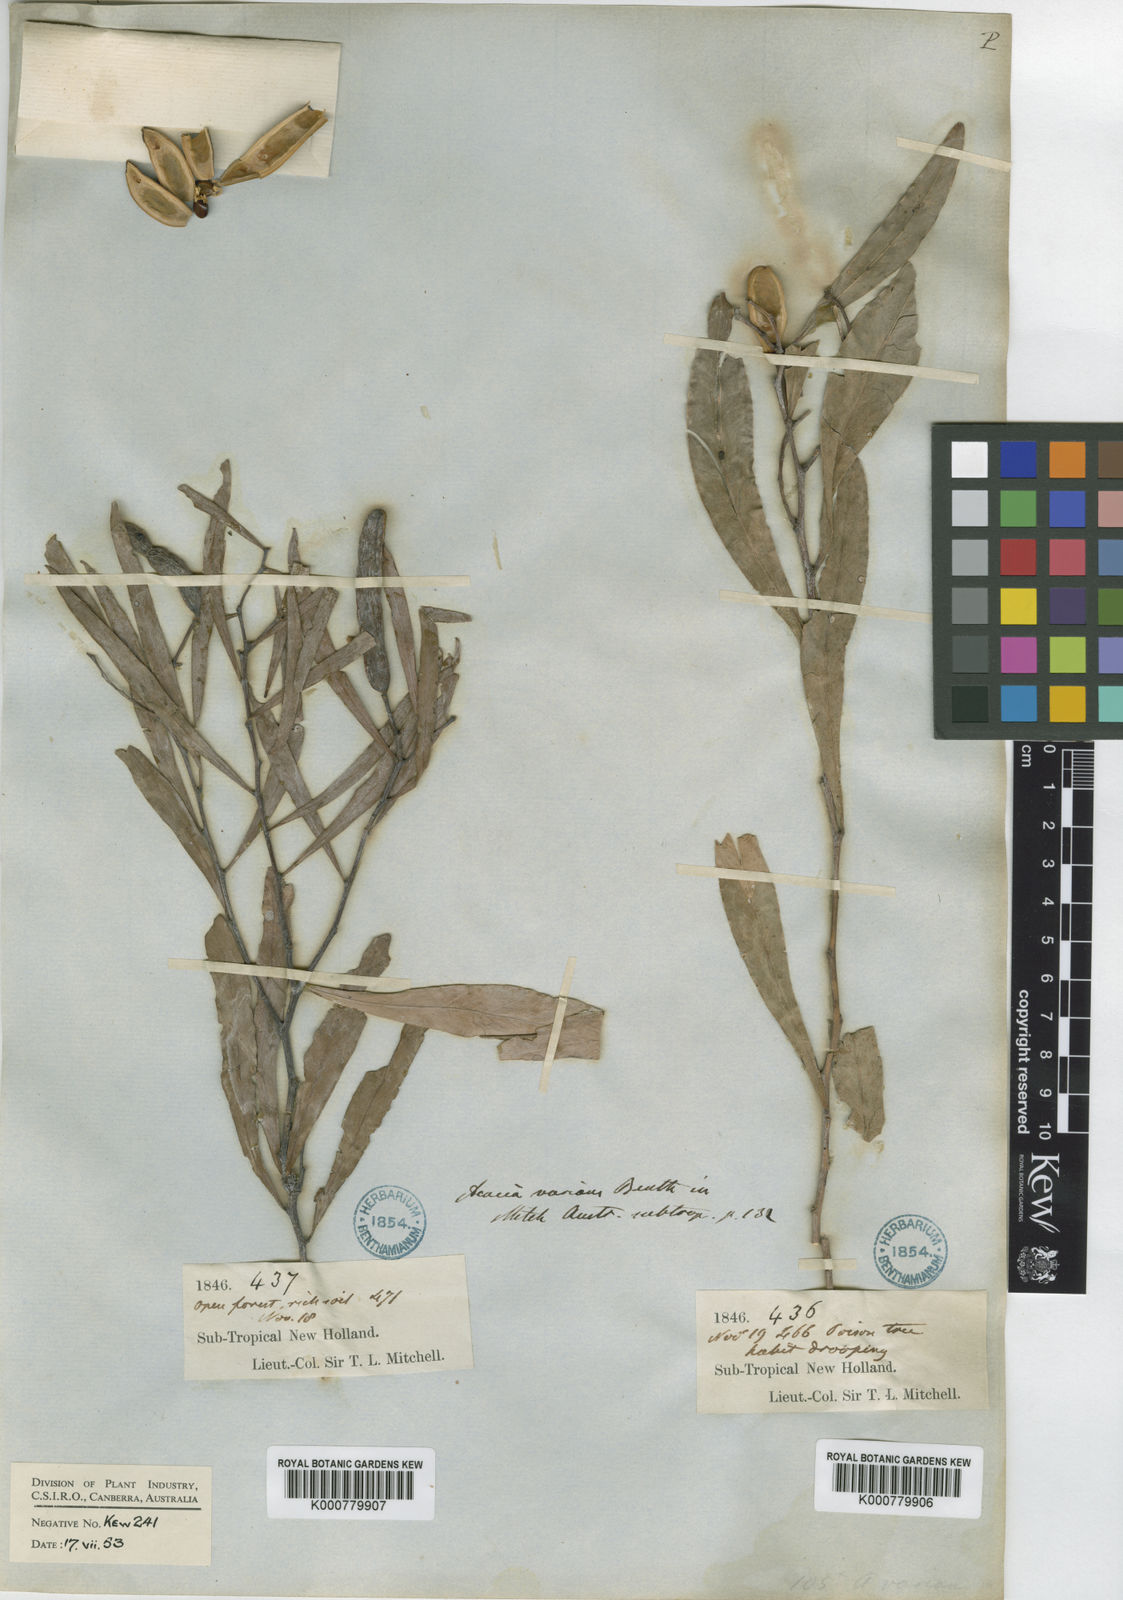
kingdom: Plantae
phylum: Tracheophyta
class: Magnoliopsida
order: Fabales
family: Fabaceae
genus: Acacia
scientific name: Acacia salicina
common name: Broughton willow wattle
